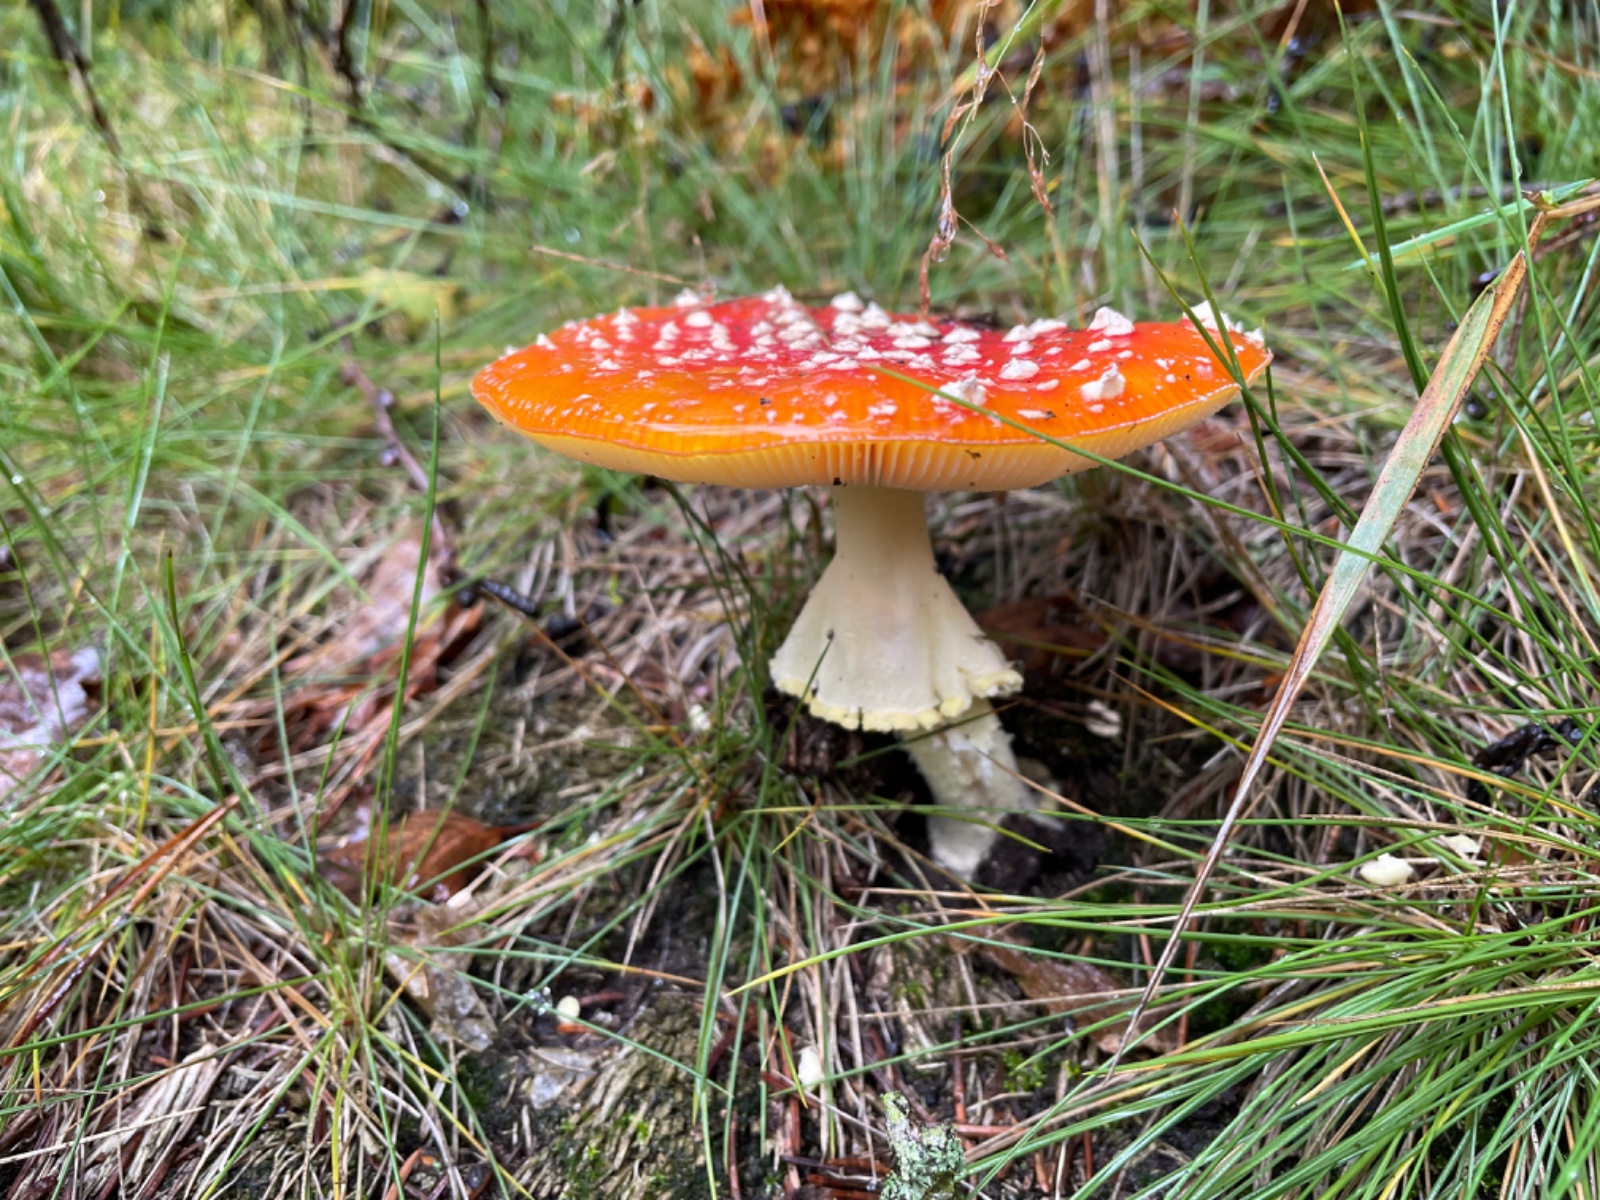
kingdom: Fungi
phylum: Basidiomycota
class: Agaricomycetes
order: Agaricales
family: Amanitaceae
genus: Amanita
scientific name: Amanita muscaria
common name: rød fluesvamp
